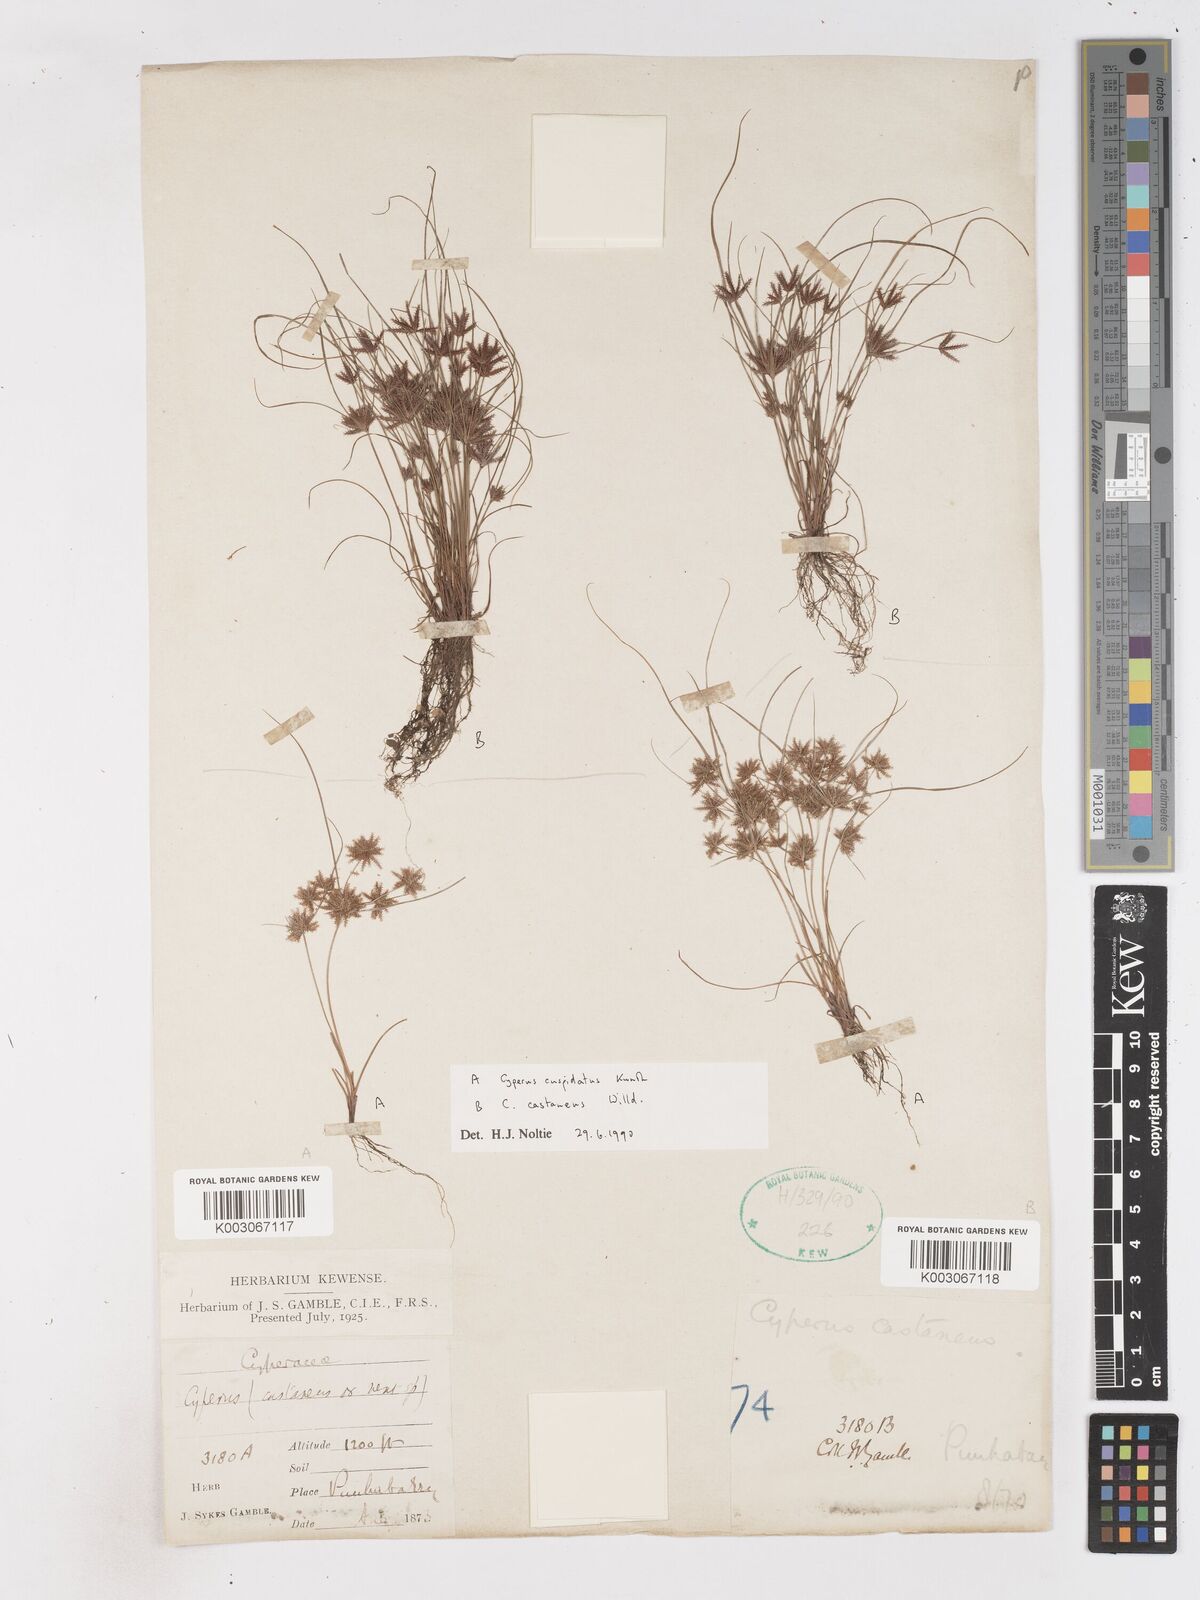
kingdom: Plantae
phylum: Tracheophyta
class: Liliopsida
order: Poales
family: Cyperaceae
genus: Cyperus
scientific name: Cyperus cuspidatus
